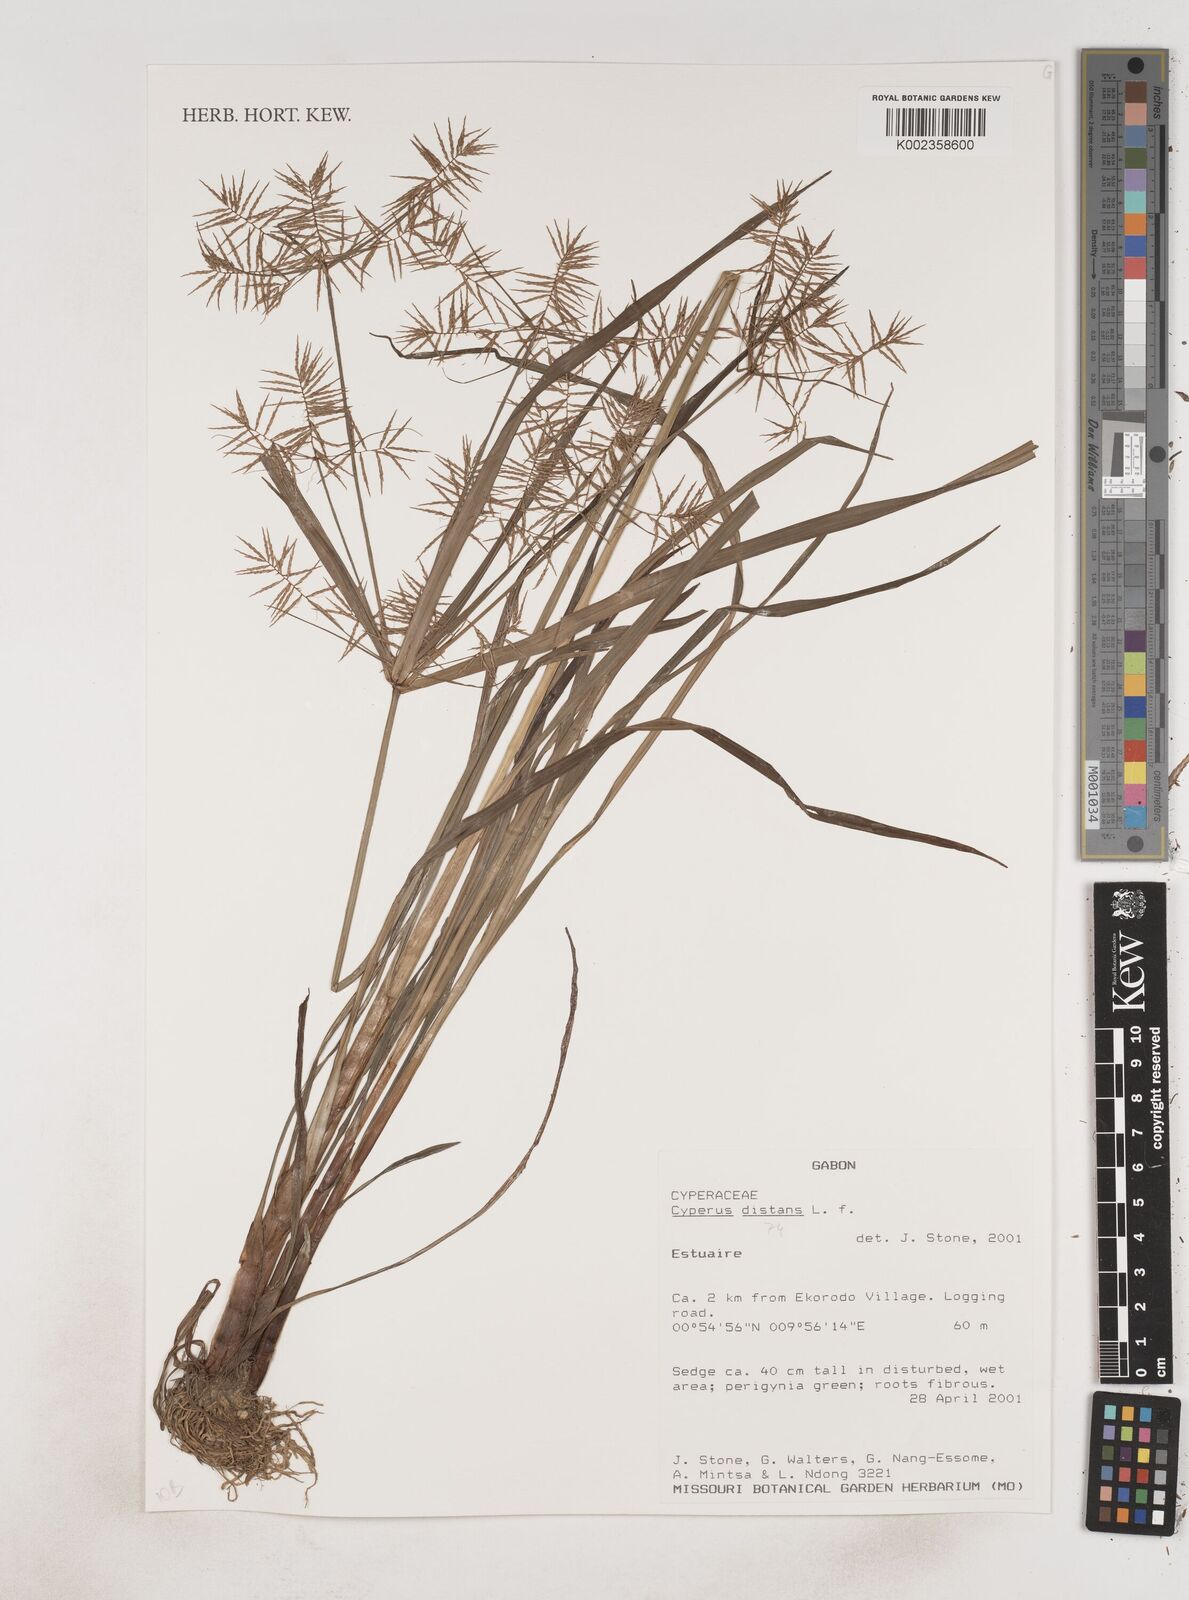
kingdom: Plantae
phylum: Tracheophyta
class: Liliopsida
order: Poales
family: Cyperaceae
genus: Cyperus
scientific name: Cyperus distans
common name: Slender cyperus
